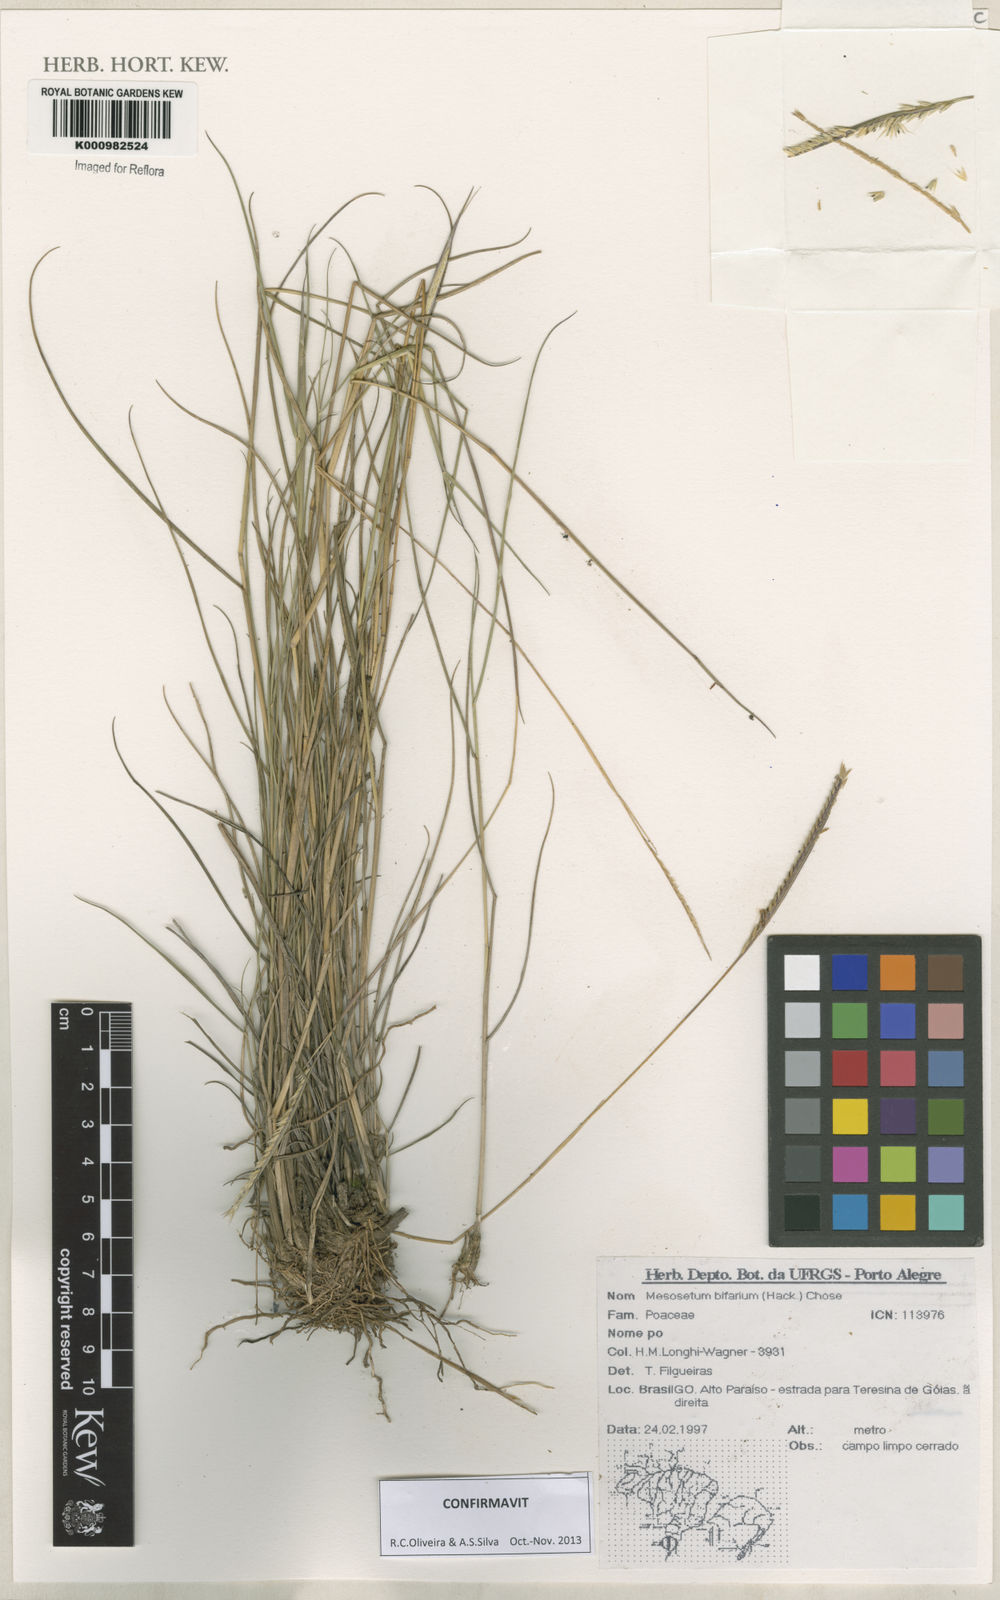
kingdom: Plantae
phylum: Tracheophyta
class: Liliopsida
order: Poales
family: Poaceae
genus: Mesosetum
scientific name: Mesosetum bifarium
